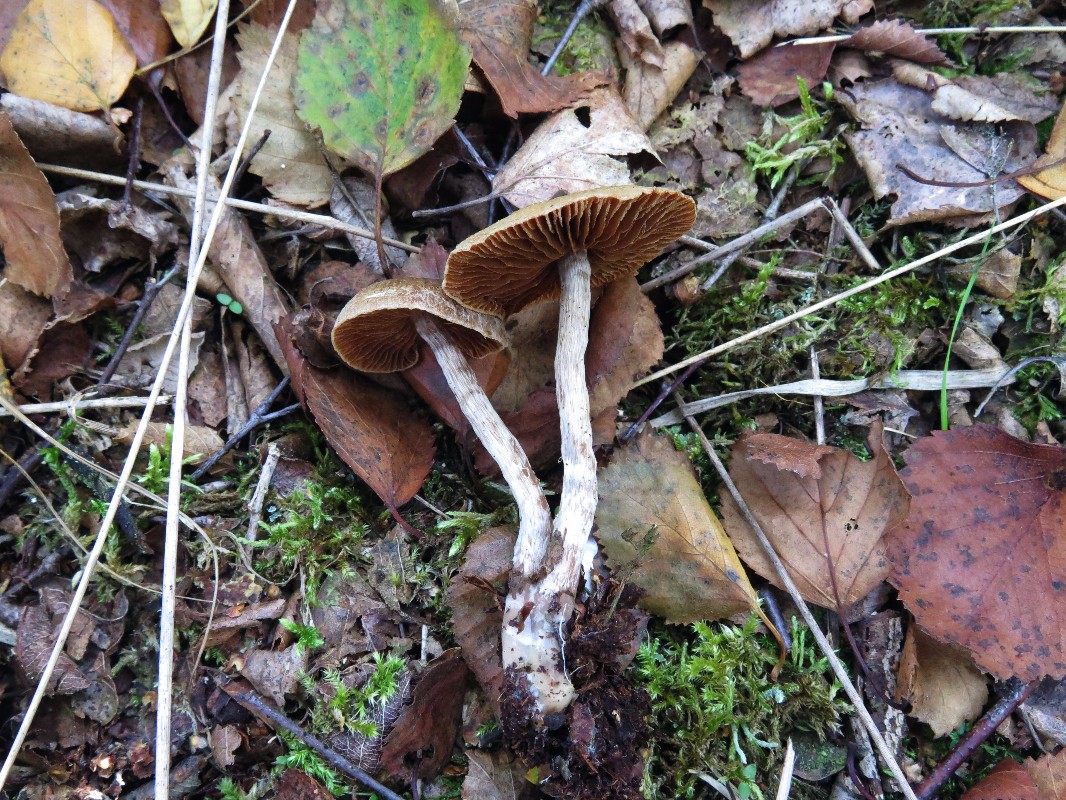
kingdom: Fungi
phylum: Basidiomycota
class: Agaricomycetes
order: Agaricales
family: Cortinariaceae
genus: Cortinarius
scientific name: Cortinarius
